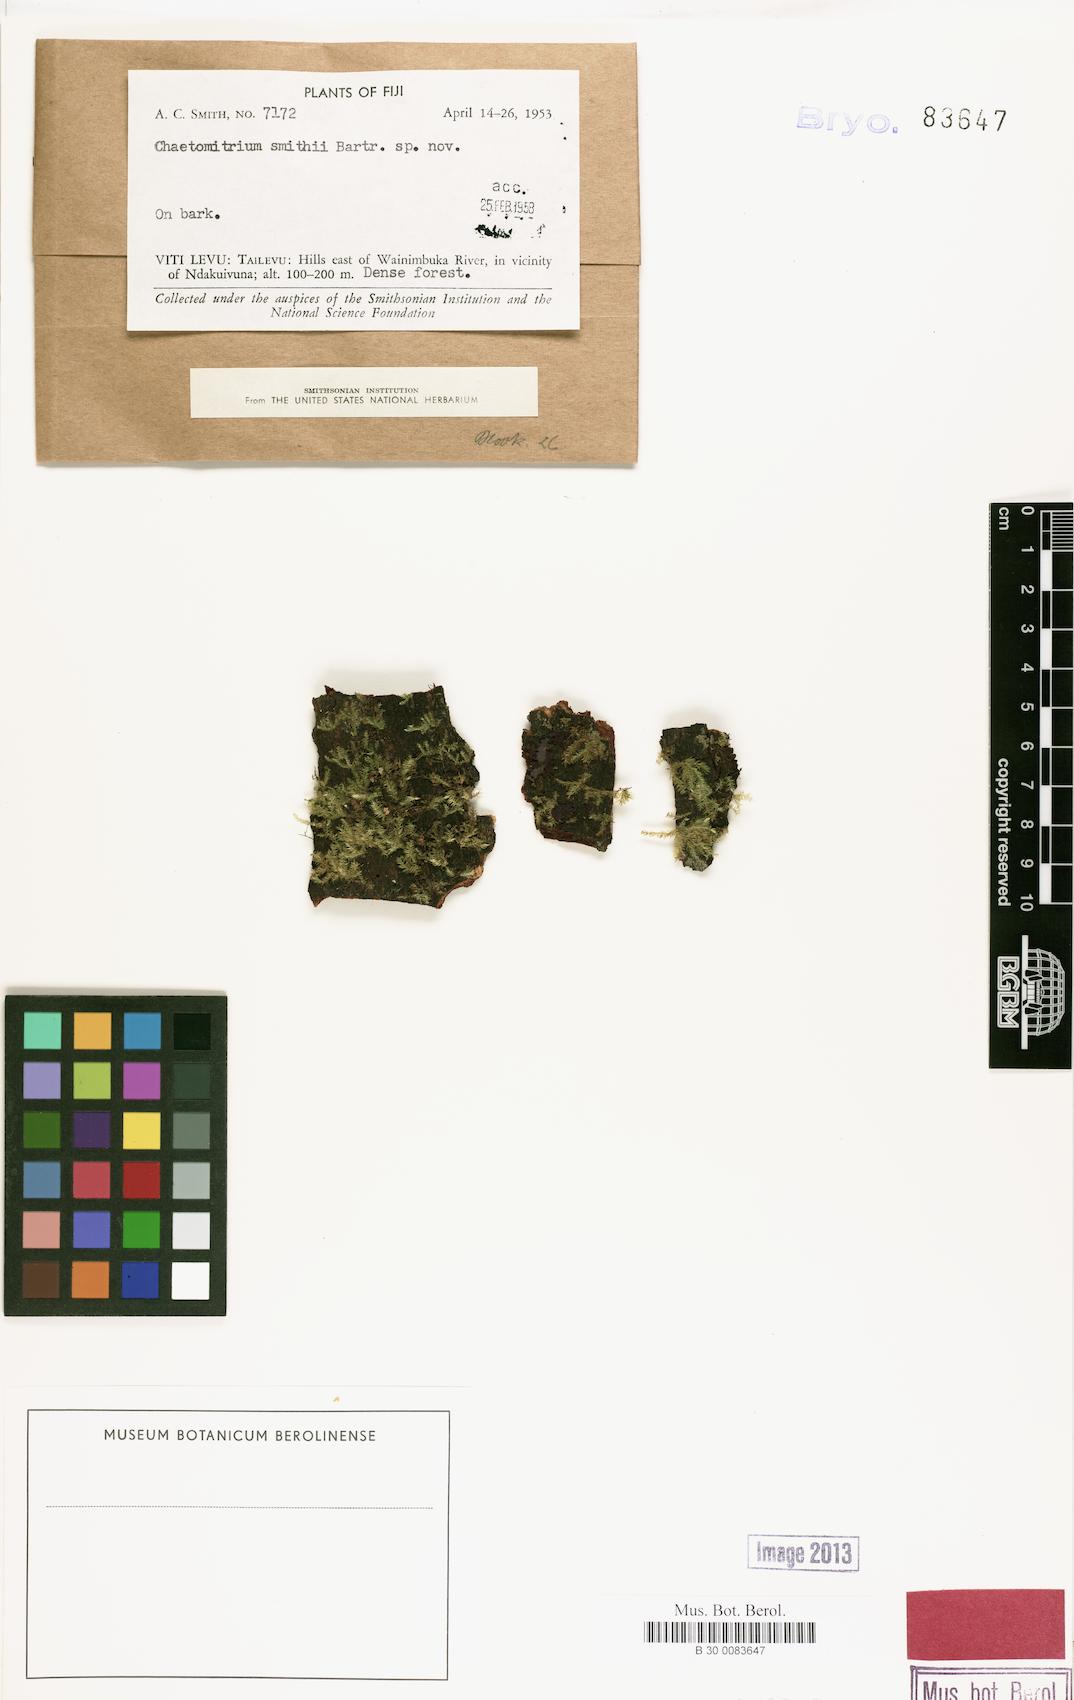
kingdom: Plantae
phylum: Bryophyta
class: Bryopsida
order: Hypnales
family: Symphyodontaceae
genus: Chaetomitrium
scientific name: Chaetomitrium smithii
